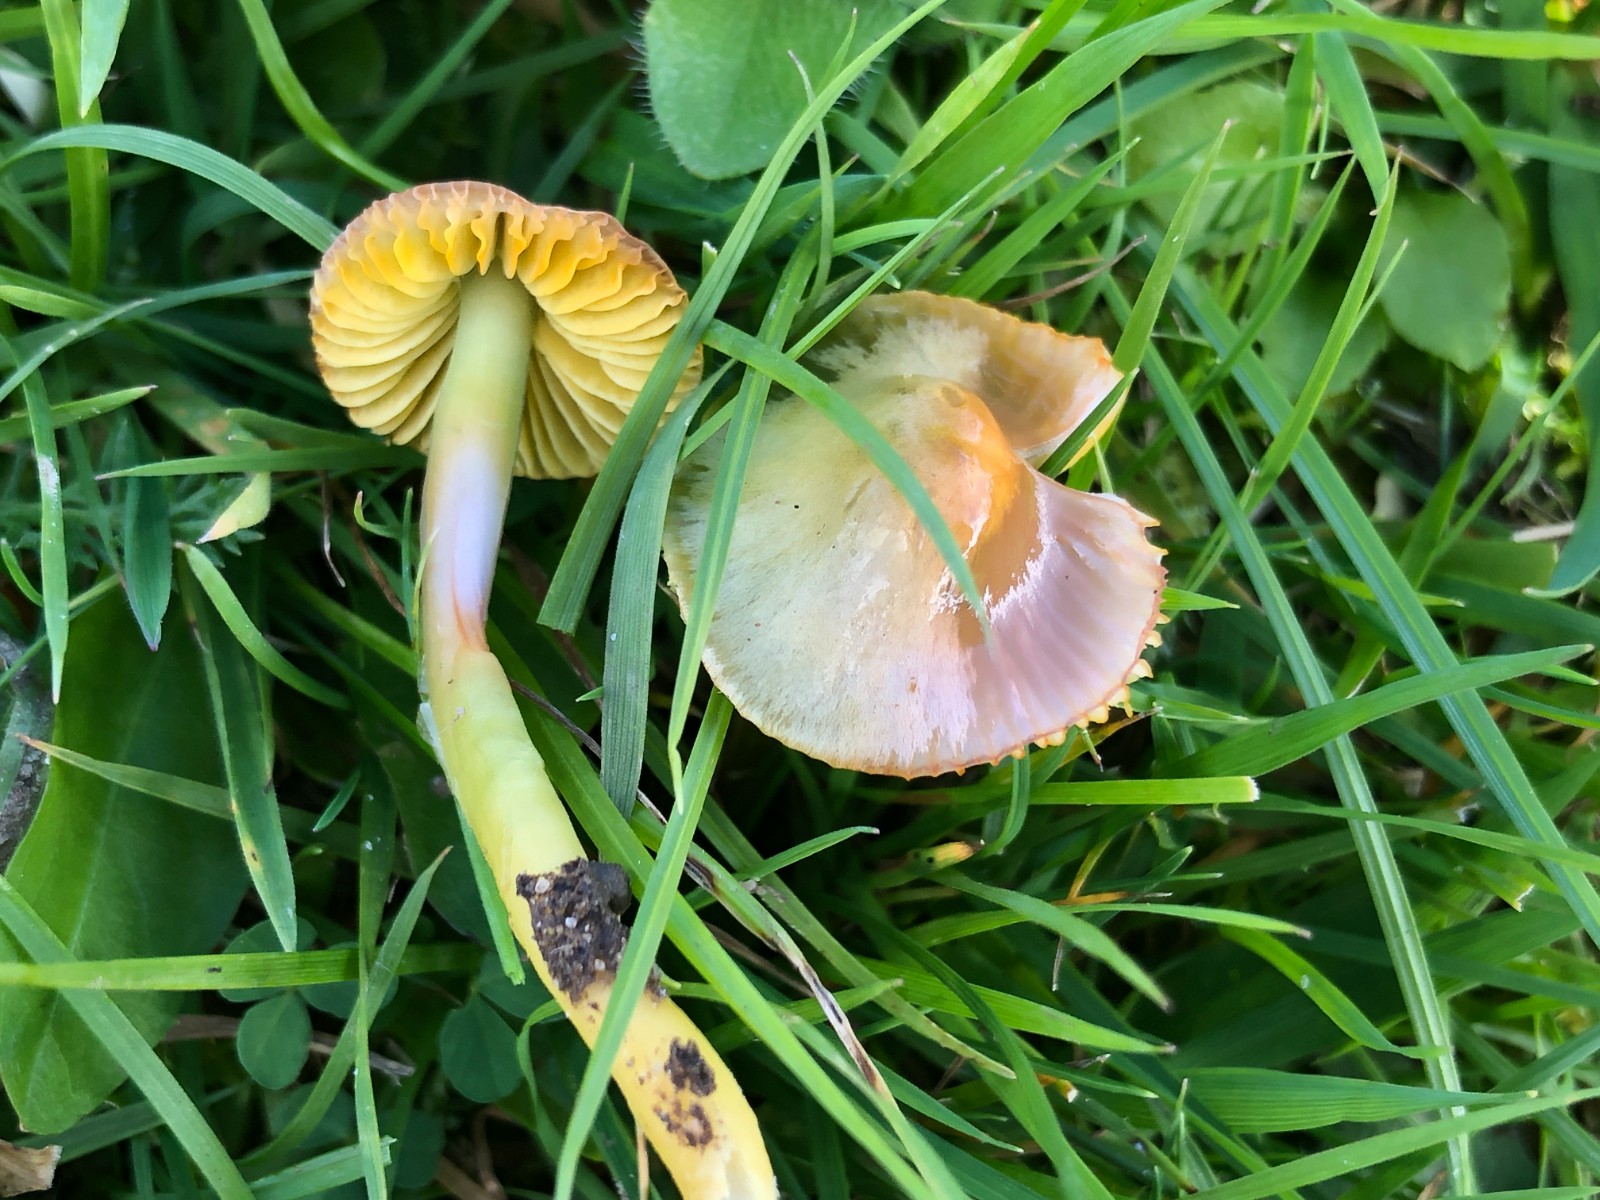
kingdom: Fungi
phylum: Basidiomycota
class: Agaricomycetes
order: Agaricales
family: Hygrophoraceae
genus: Gliophorus
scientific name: Gliophorus psittacinus
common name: papegøje-vokshat
